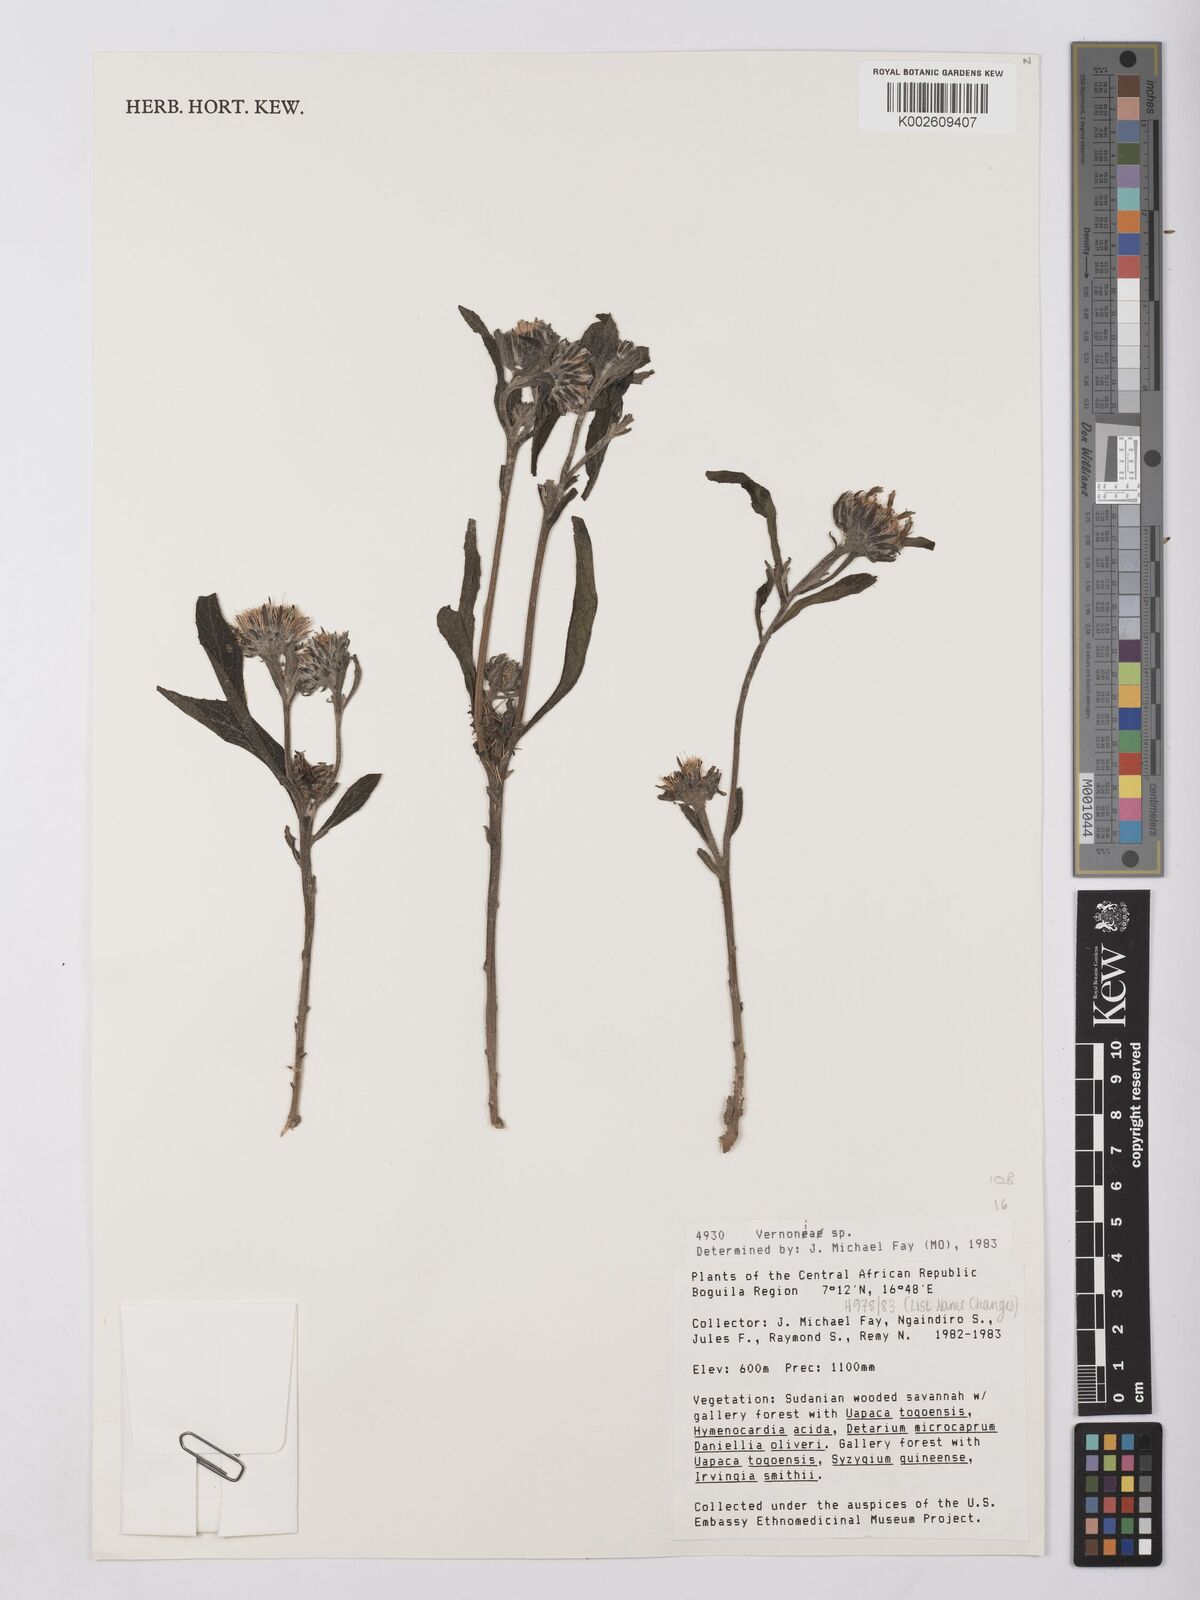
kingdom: Plantae
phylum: Tracheophyta
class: Magnoliopsida
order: Asterales
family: Asteraceae
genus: Vernonia
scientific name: Vernonia
